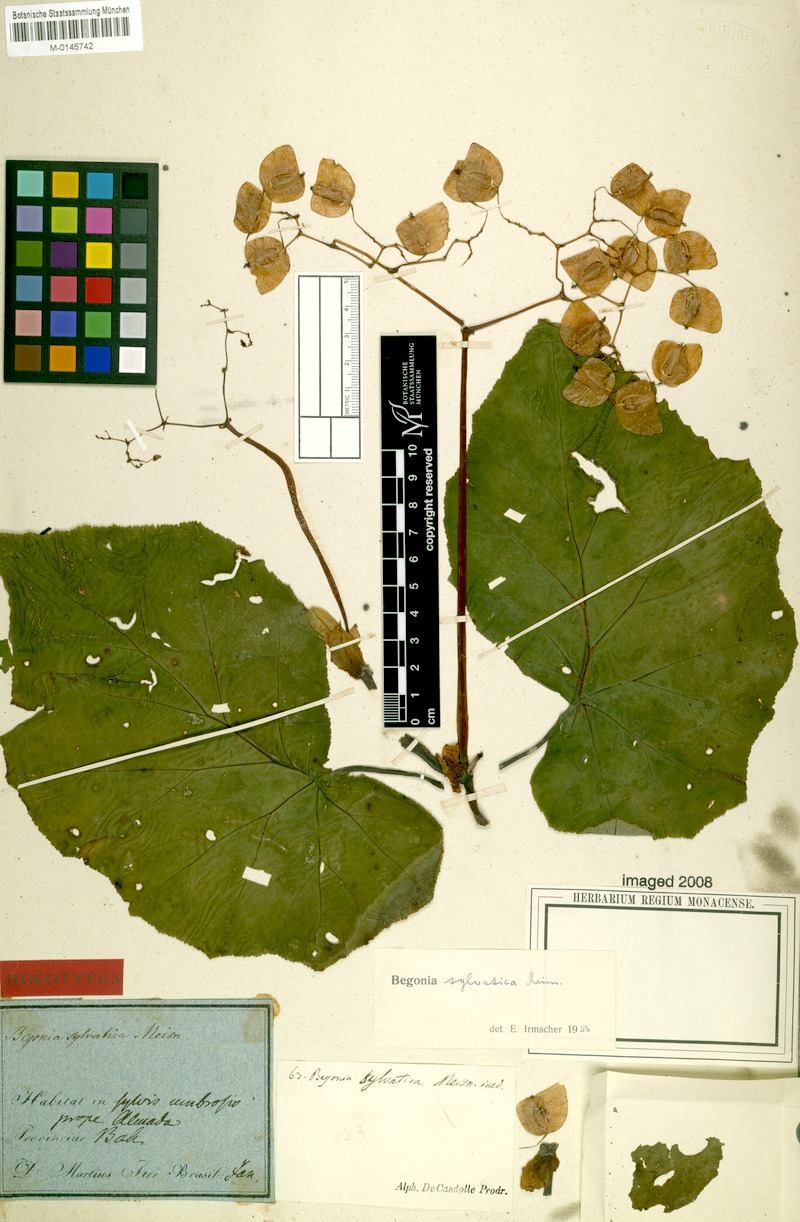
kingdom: Plantae
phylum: Tracheophyta
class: Magnoliopsida
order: Cucurbitales
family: Begoniaceae
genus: Begonia
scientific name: Begonia sylvatica
